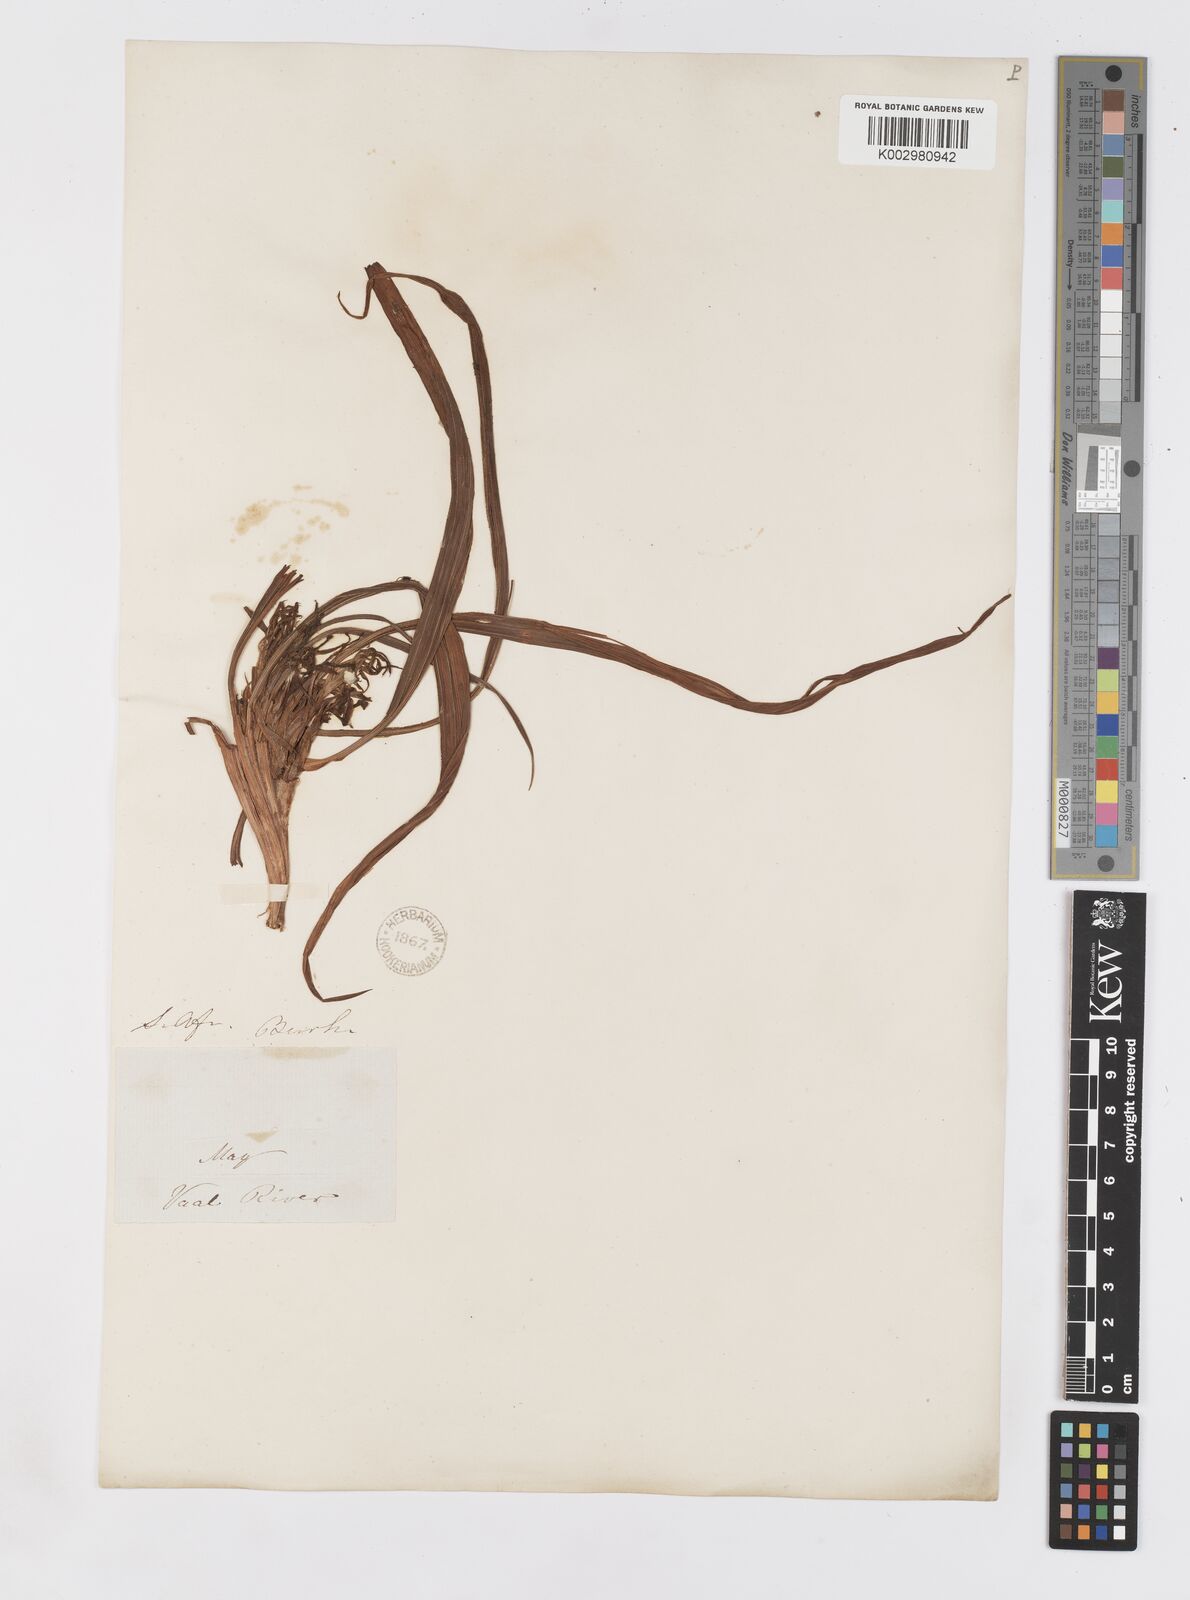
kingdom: Plantae
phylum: Tracheophyta
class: Liliopsida
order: Asparagales
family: Iridaceae
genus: Babiana
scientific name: Babiana bainesii
